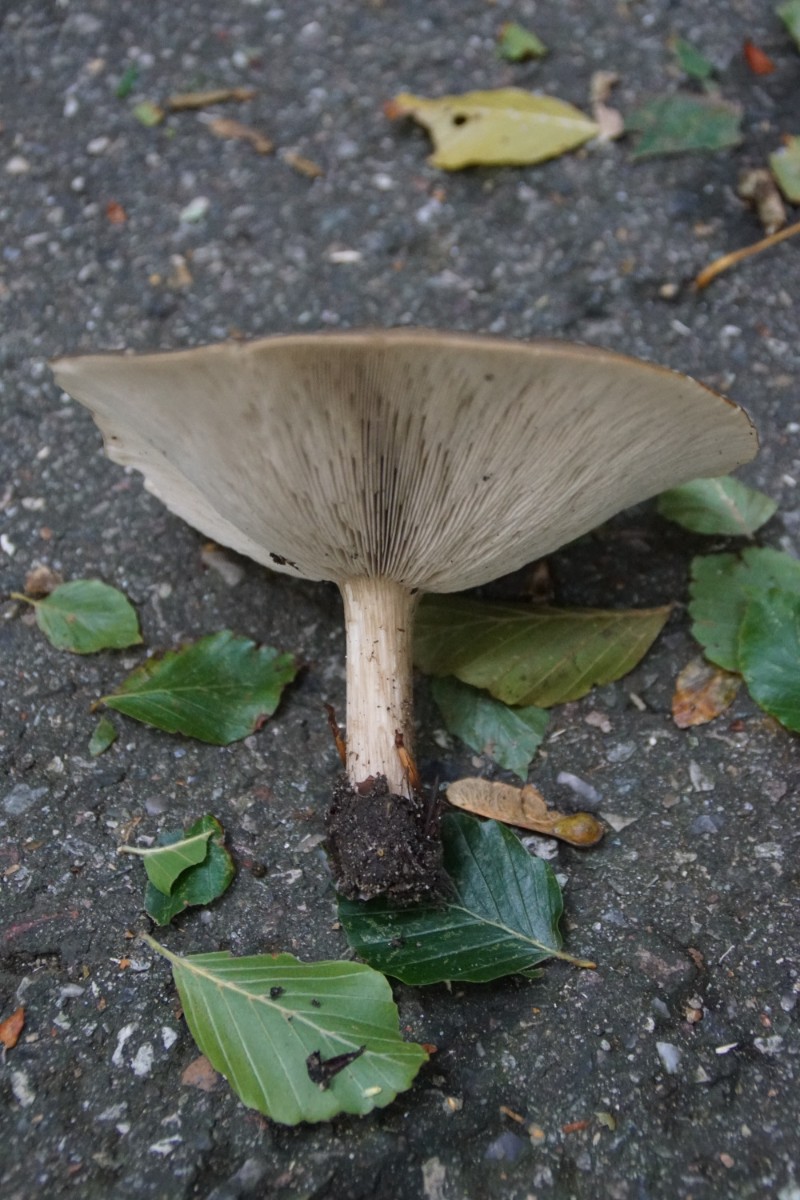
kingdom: Fungi
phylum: Basidiomycota
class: Agaricomycetes
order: Agaricales
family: Tricholomataceae
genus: Melanoleuca
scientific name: Melanoleuca grammopodia
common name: stribestokket munkehat
